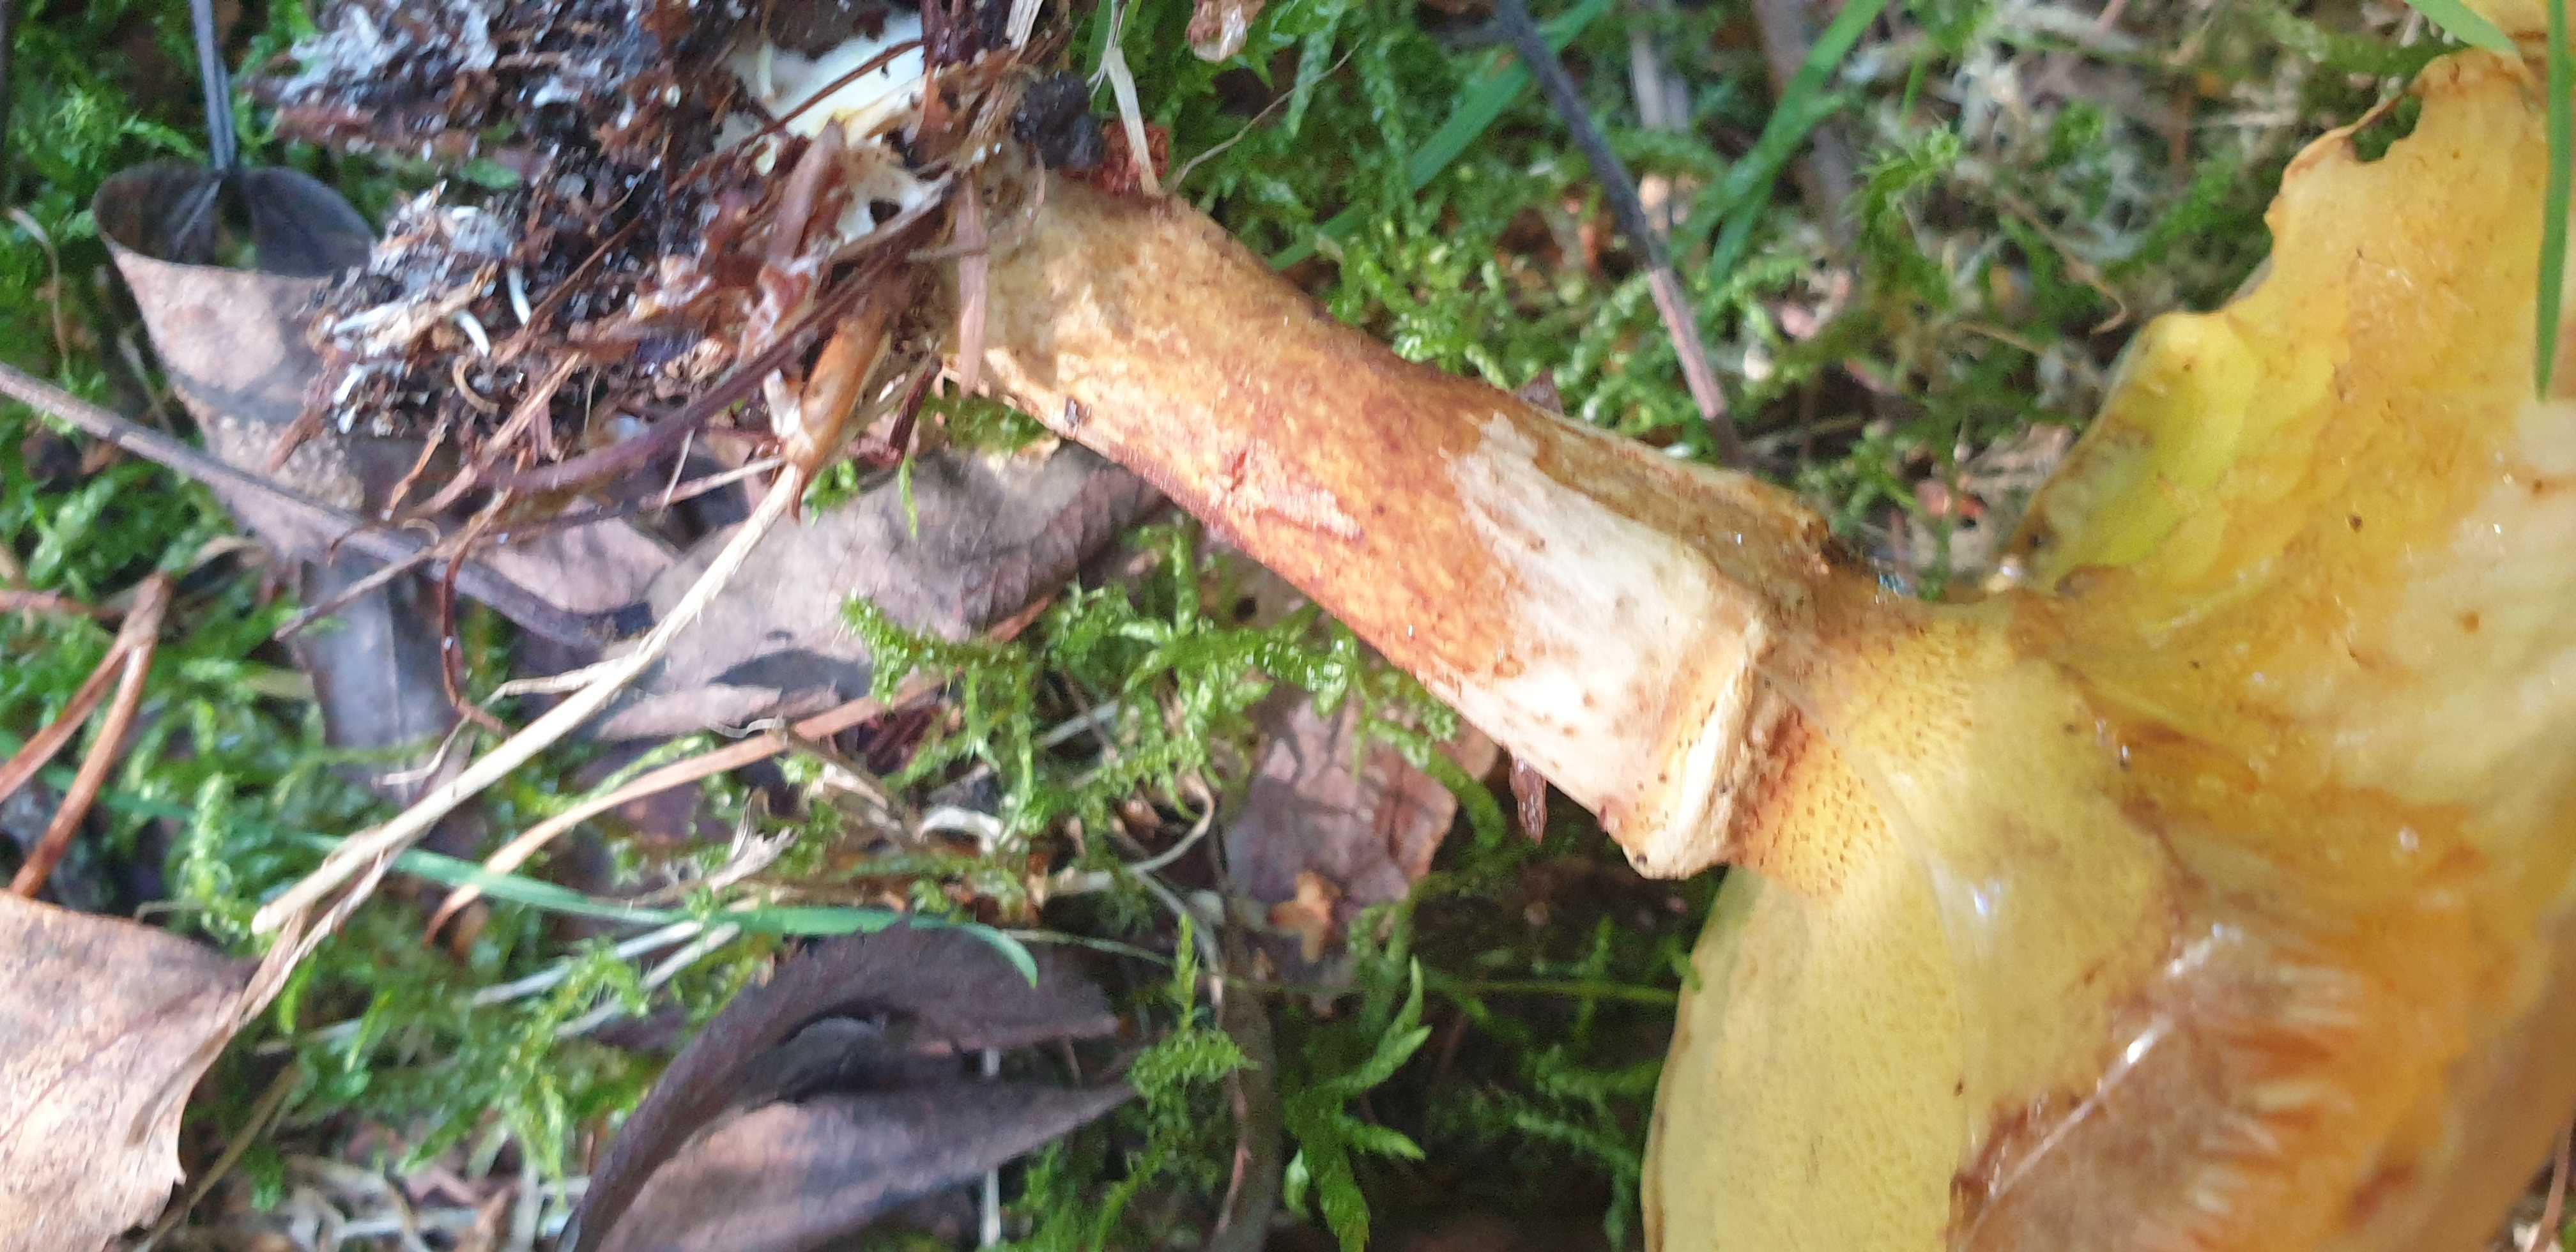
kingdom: Fungi
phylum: Basidiomycota
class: Agaricomycetes
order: Boletales
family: Suillaceae
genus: Suillus
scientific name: Suillus grevillei
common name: lærke-slimrørhat
